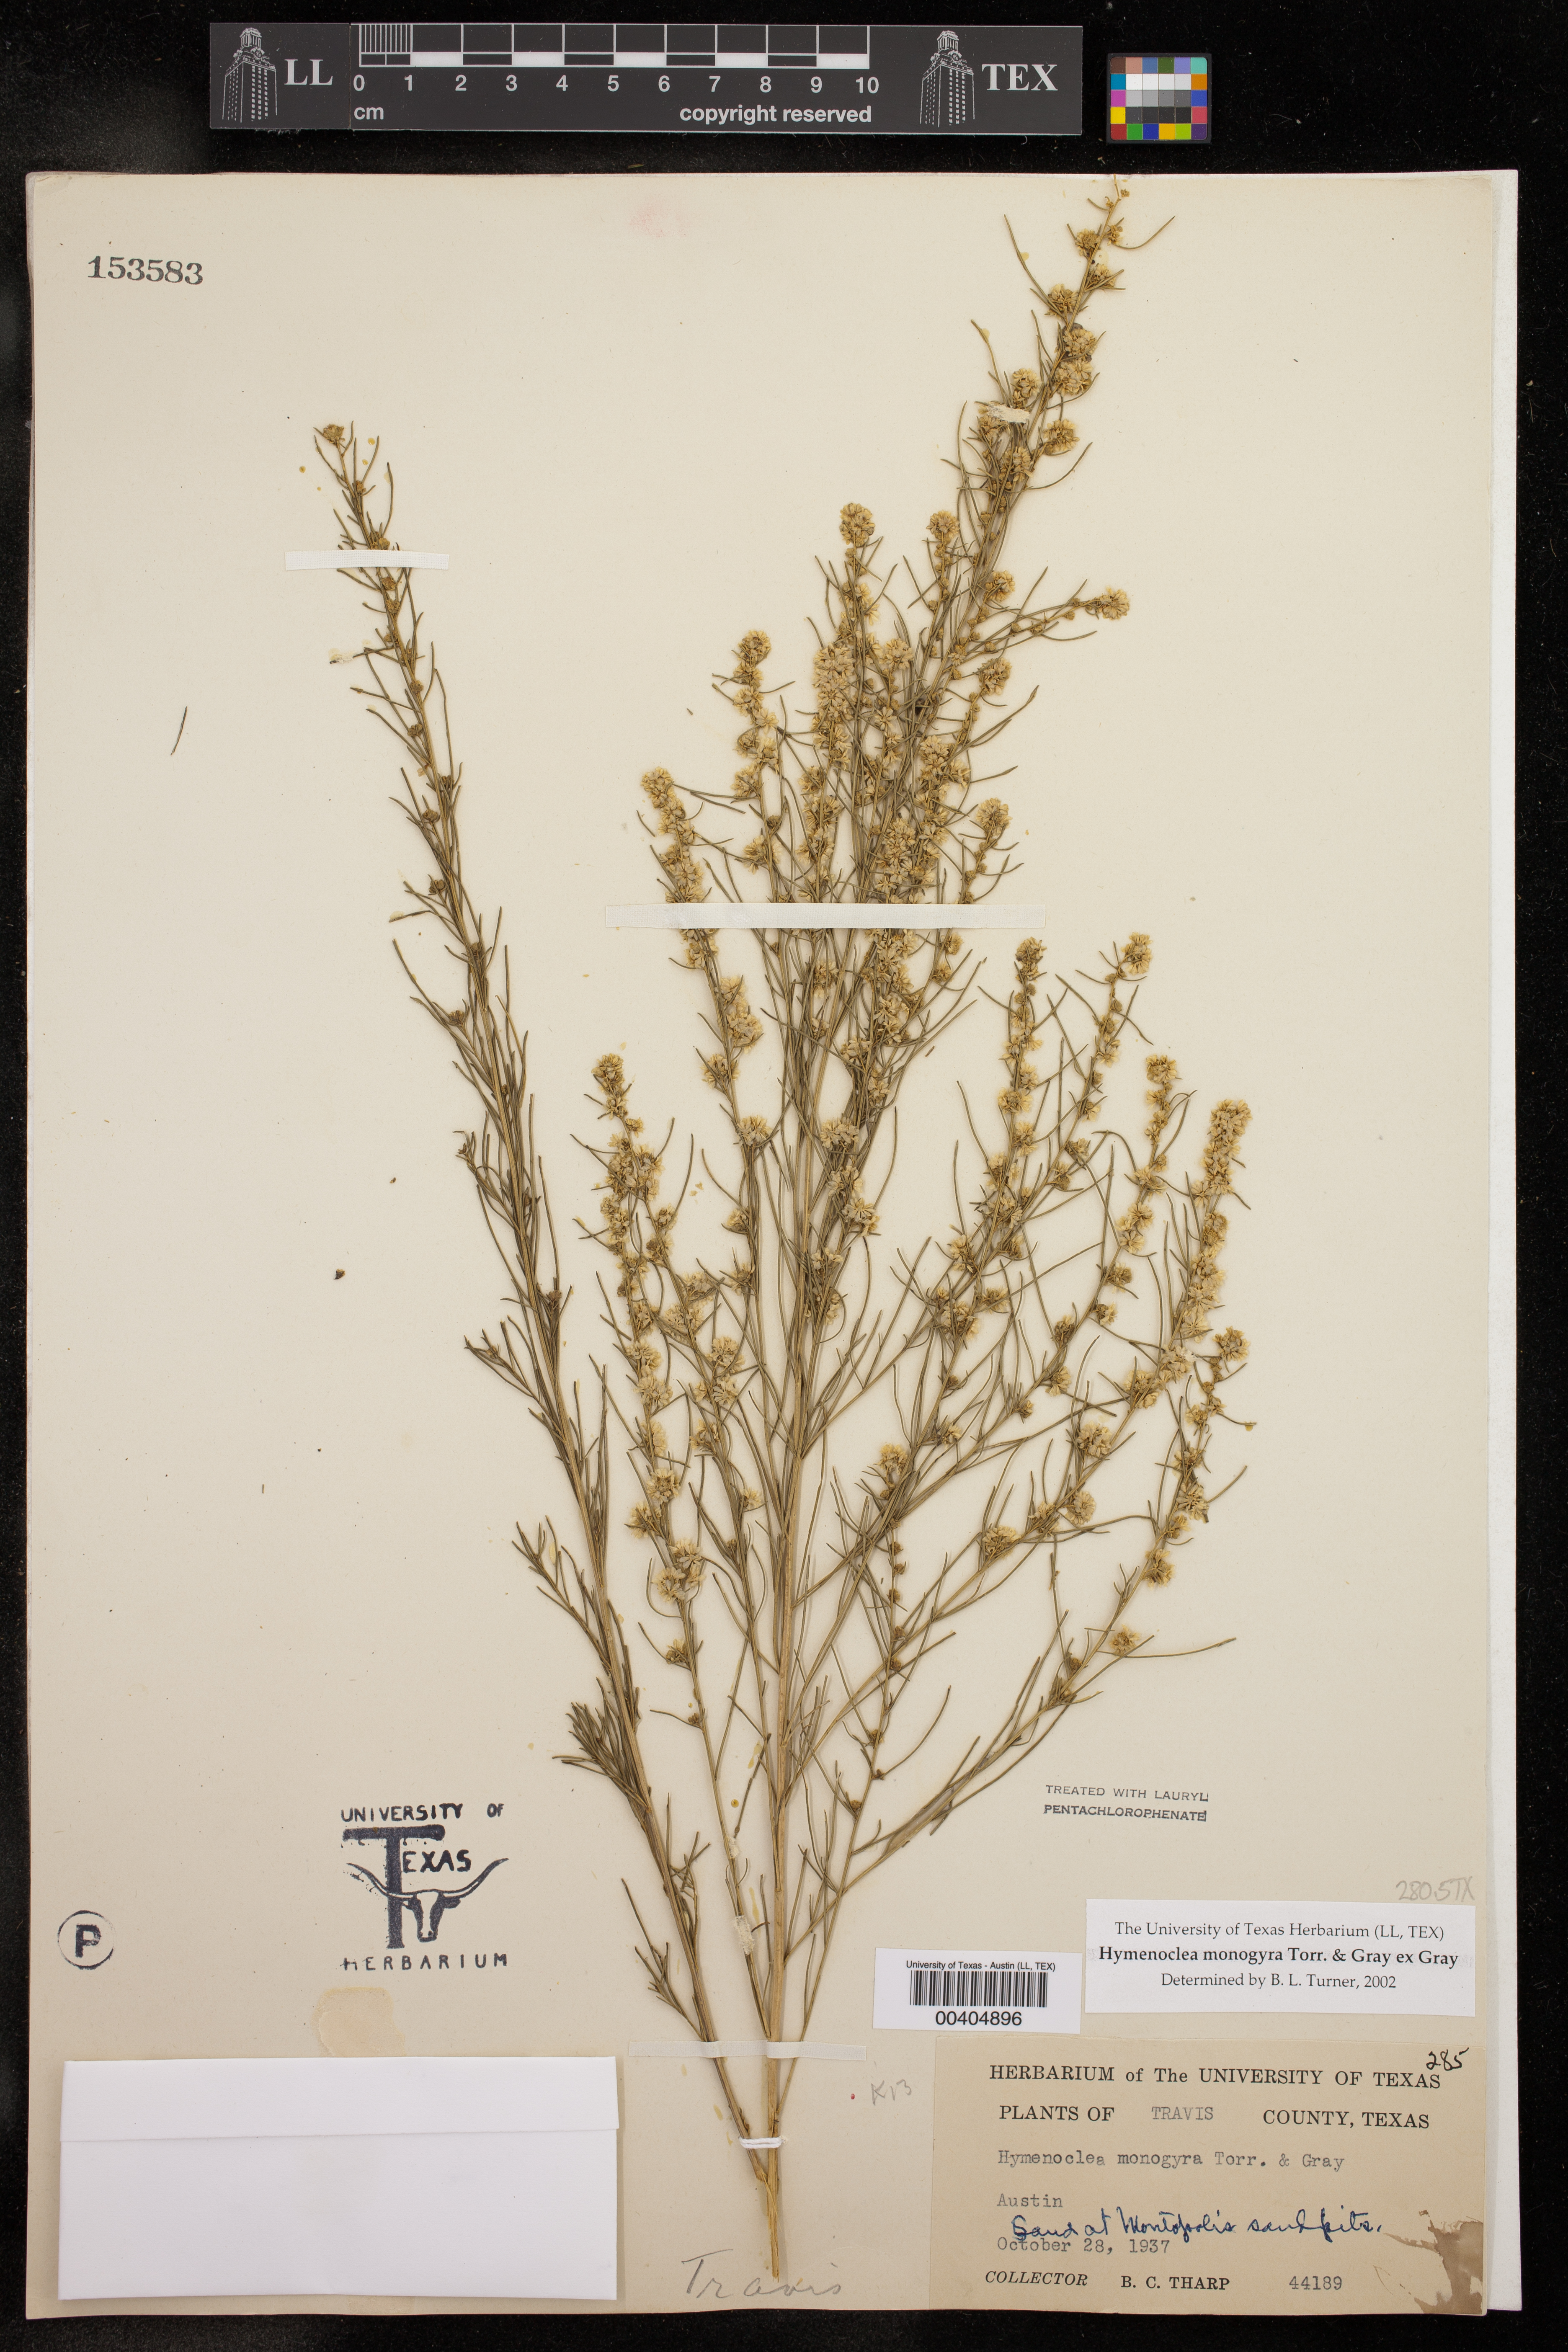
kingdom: Plantae
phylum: Tracheophyta
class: Magnoliopsida
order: Asterales
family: Asteraceae
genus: Ambrosia
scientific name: Ambrosia monogyra
